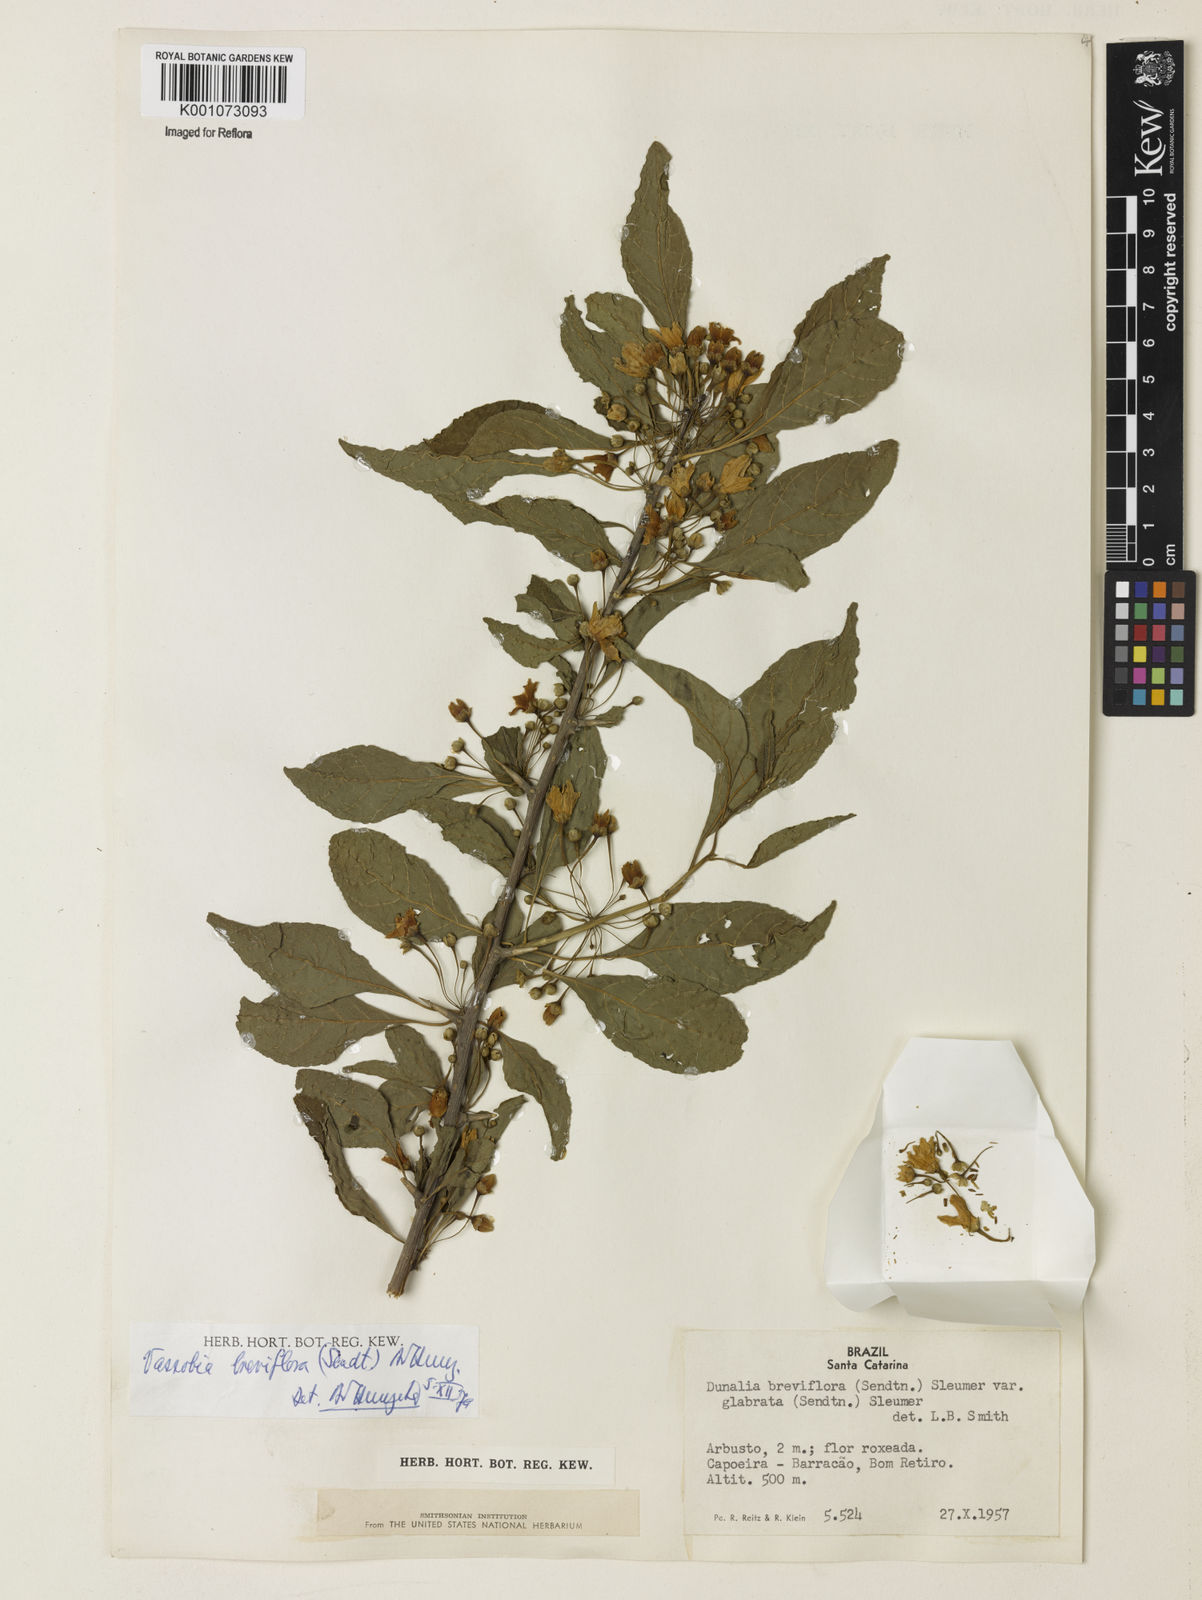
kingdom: Plantae
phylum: Tracheophyta
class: Magnoliopsida
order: Solanales
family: Solanaceae
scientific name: Solanaceae
